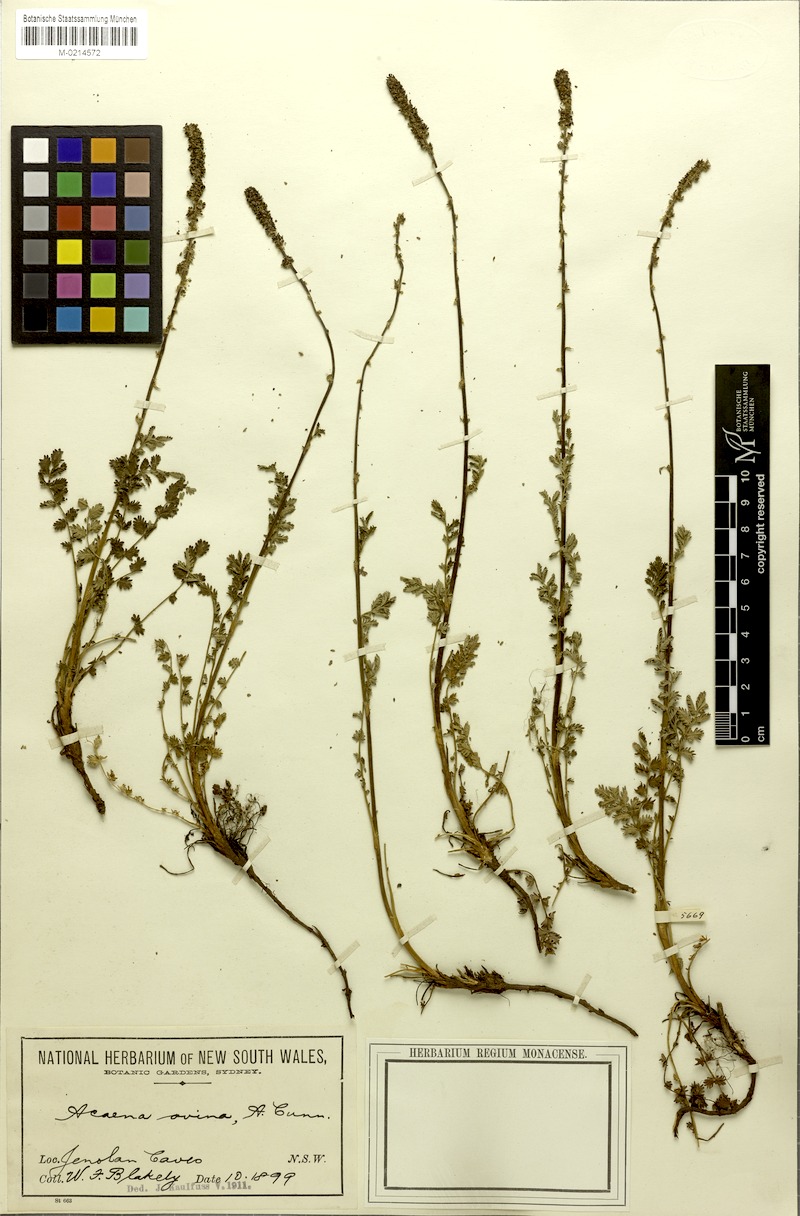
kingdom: Plantae
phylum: Tracheophyta
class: Magnoliopsida
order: Rosales
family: Rosaceae
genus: Acaena
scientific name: Acaena ovina
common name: Hairy sheepbur
